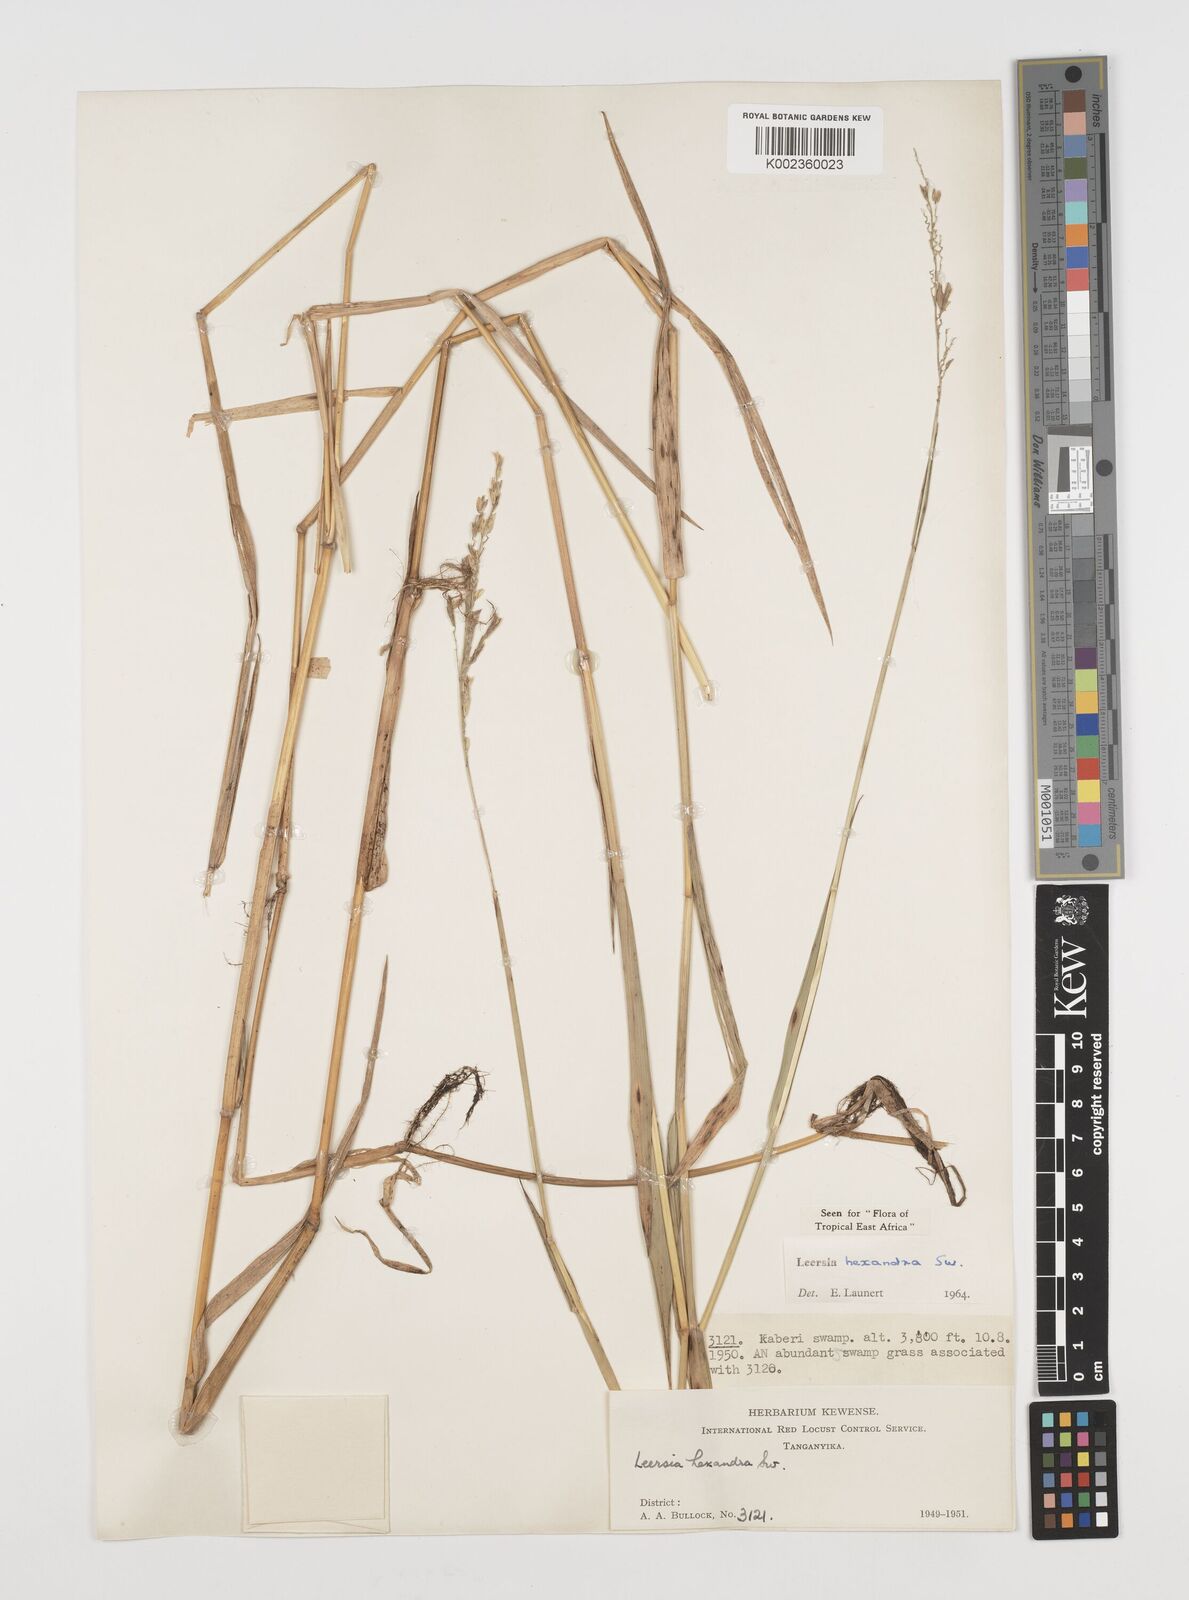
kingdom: Plantae
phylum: Tracheophyta
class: Liliopsida
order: Poales
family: Poaceae
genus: Leersia
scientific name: Leersia hexandra
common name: Southern cut grass
